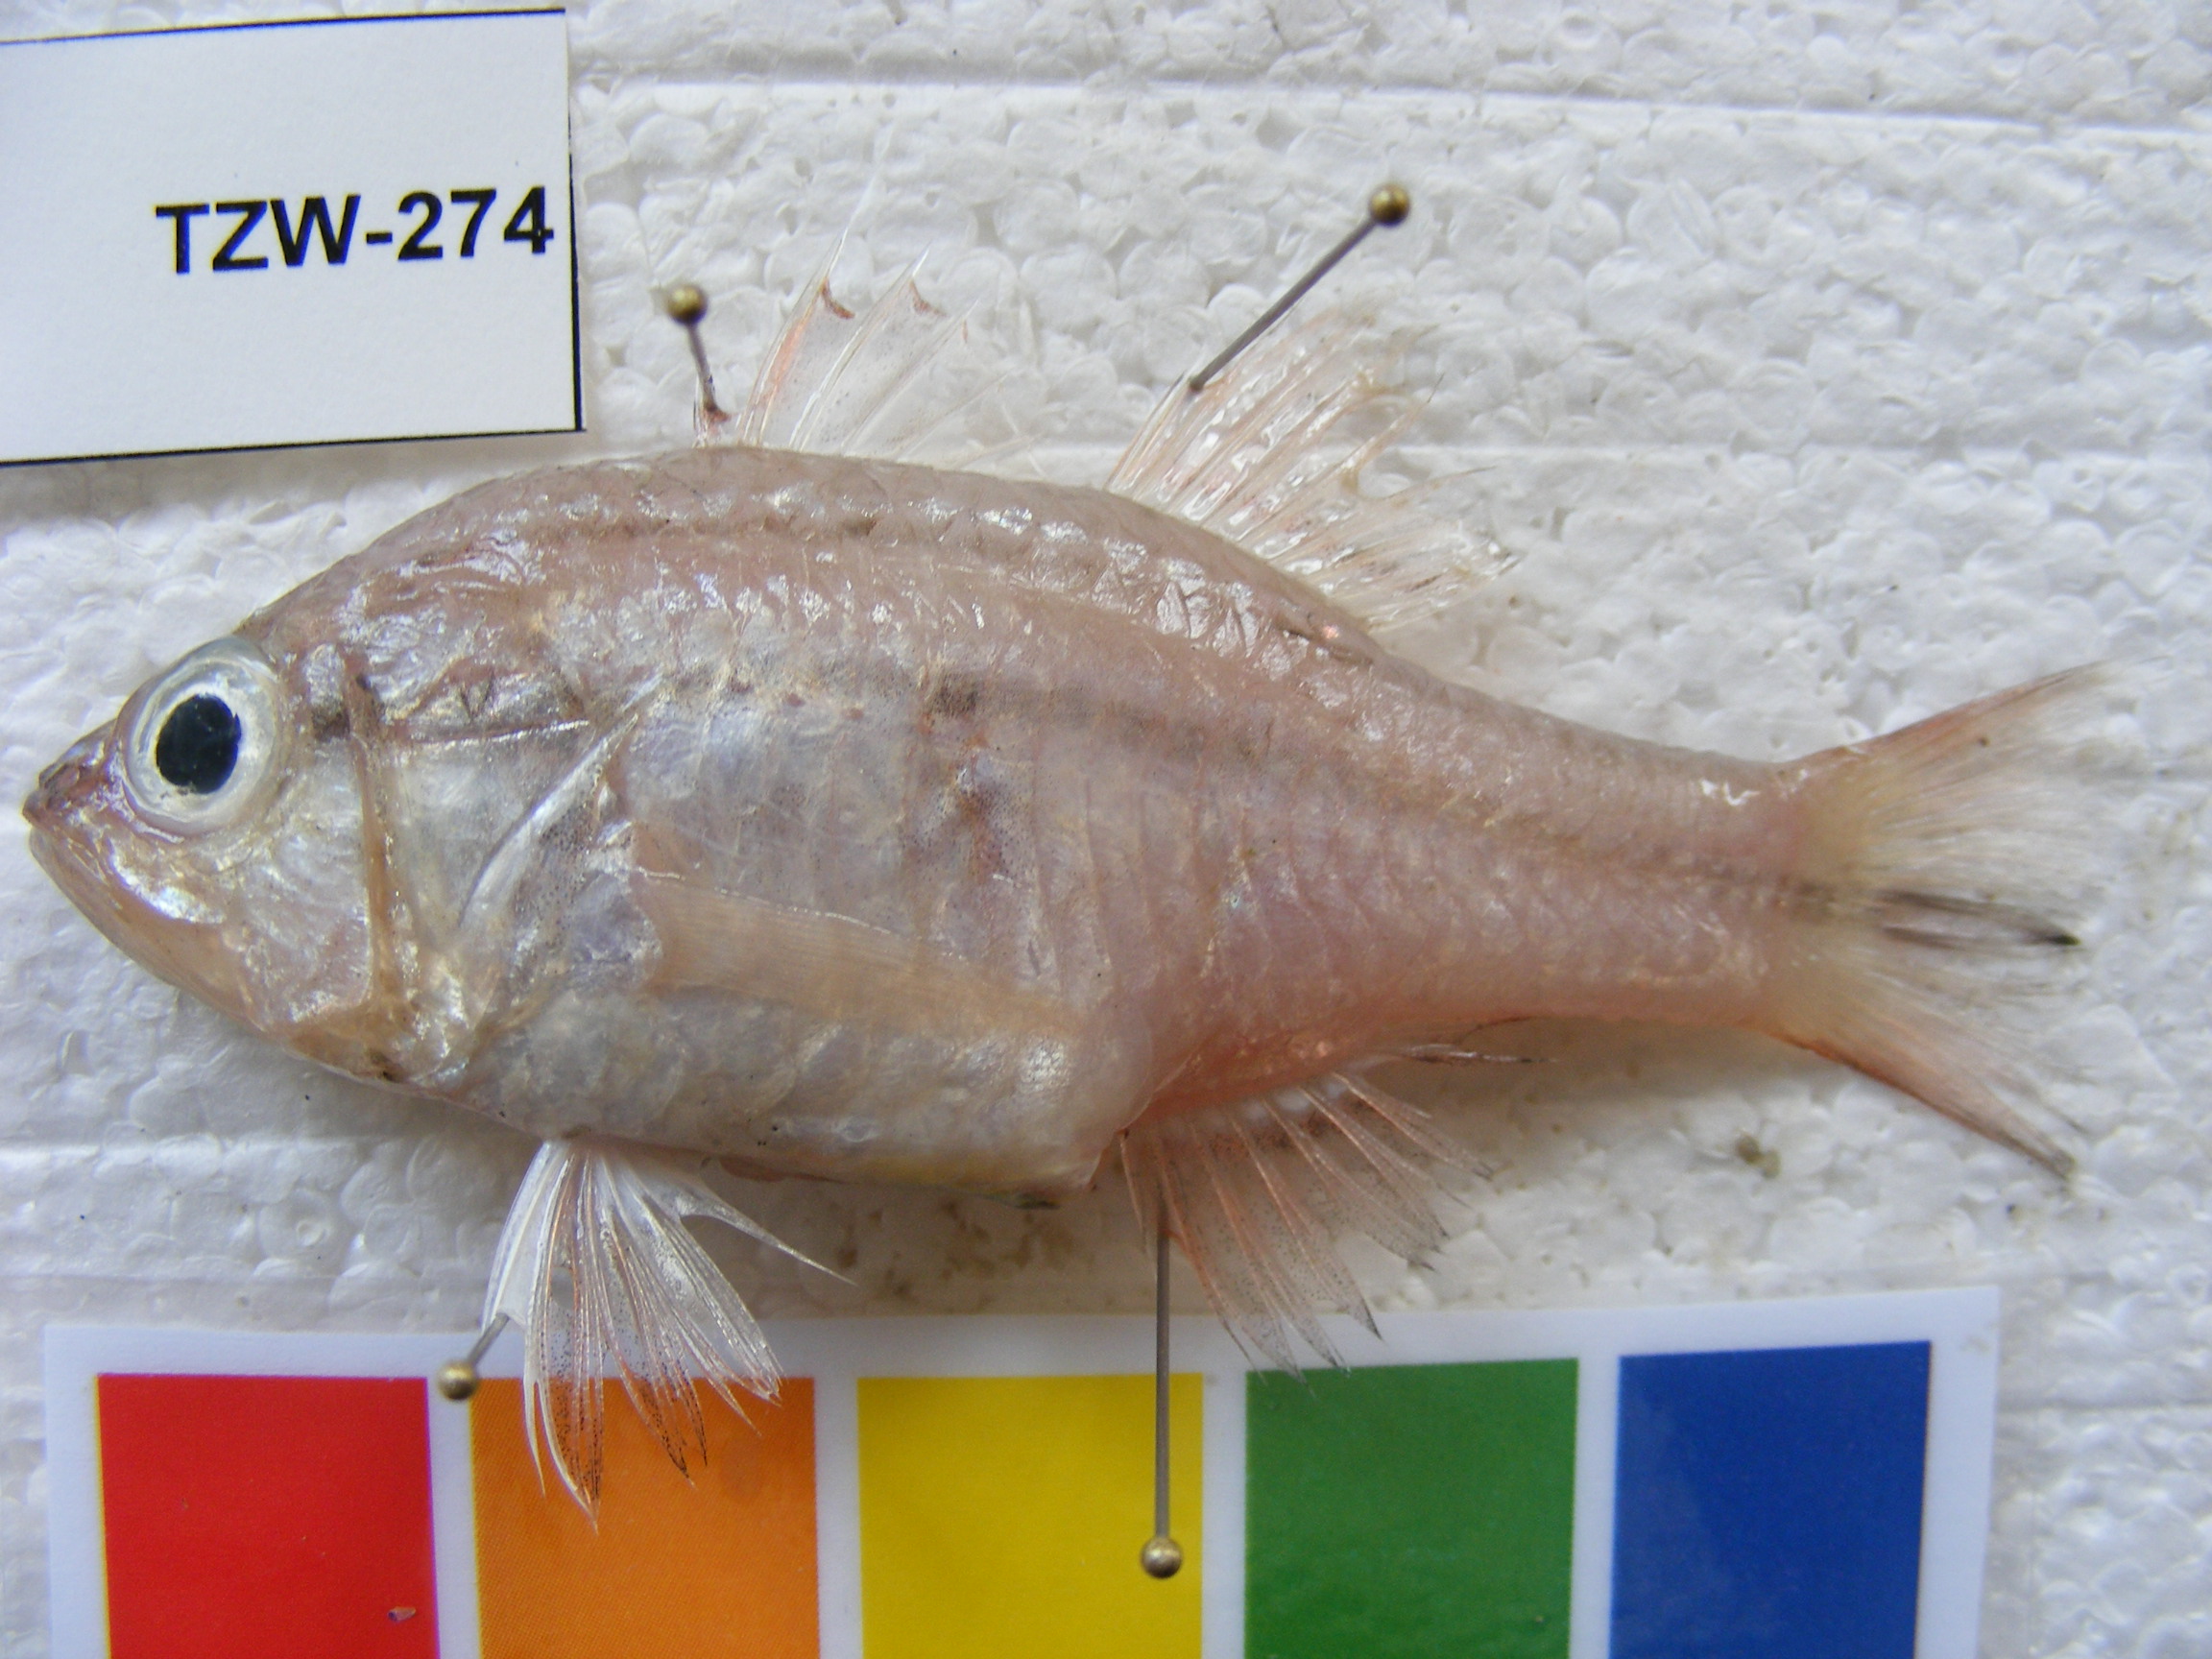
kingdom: Animalia
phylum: Chordata
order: Perciformes
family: Apogonidae
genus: Ostorhinchus
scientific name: Ostorhinchus fasciatus
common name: Twostripe cardinal
